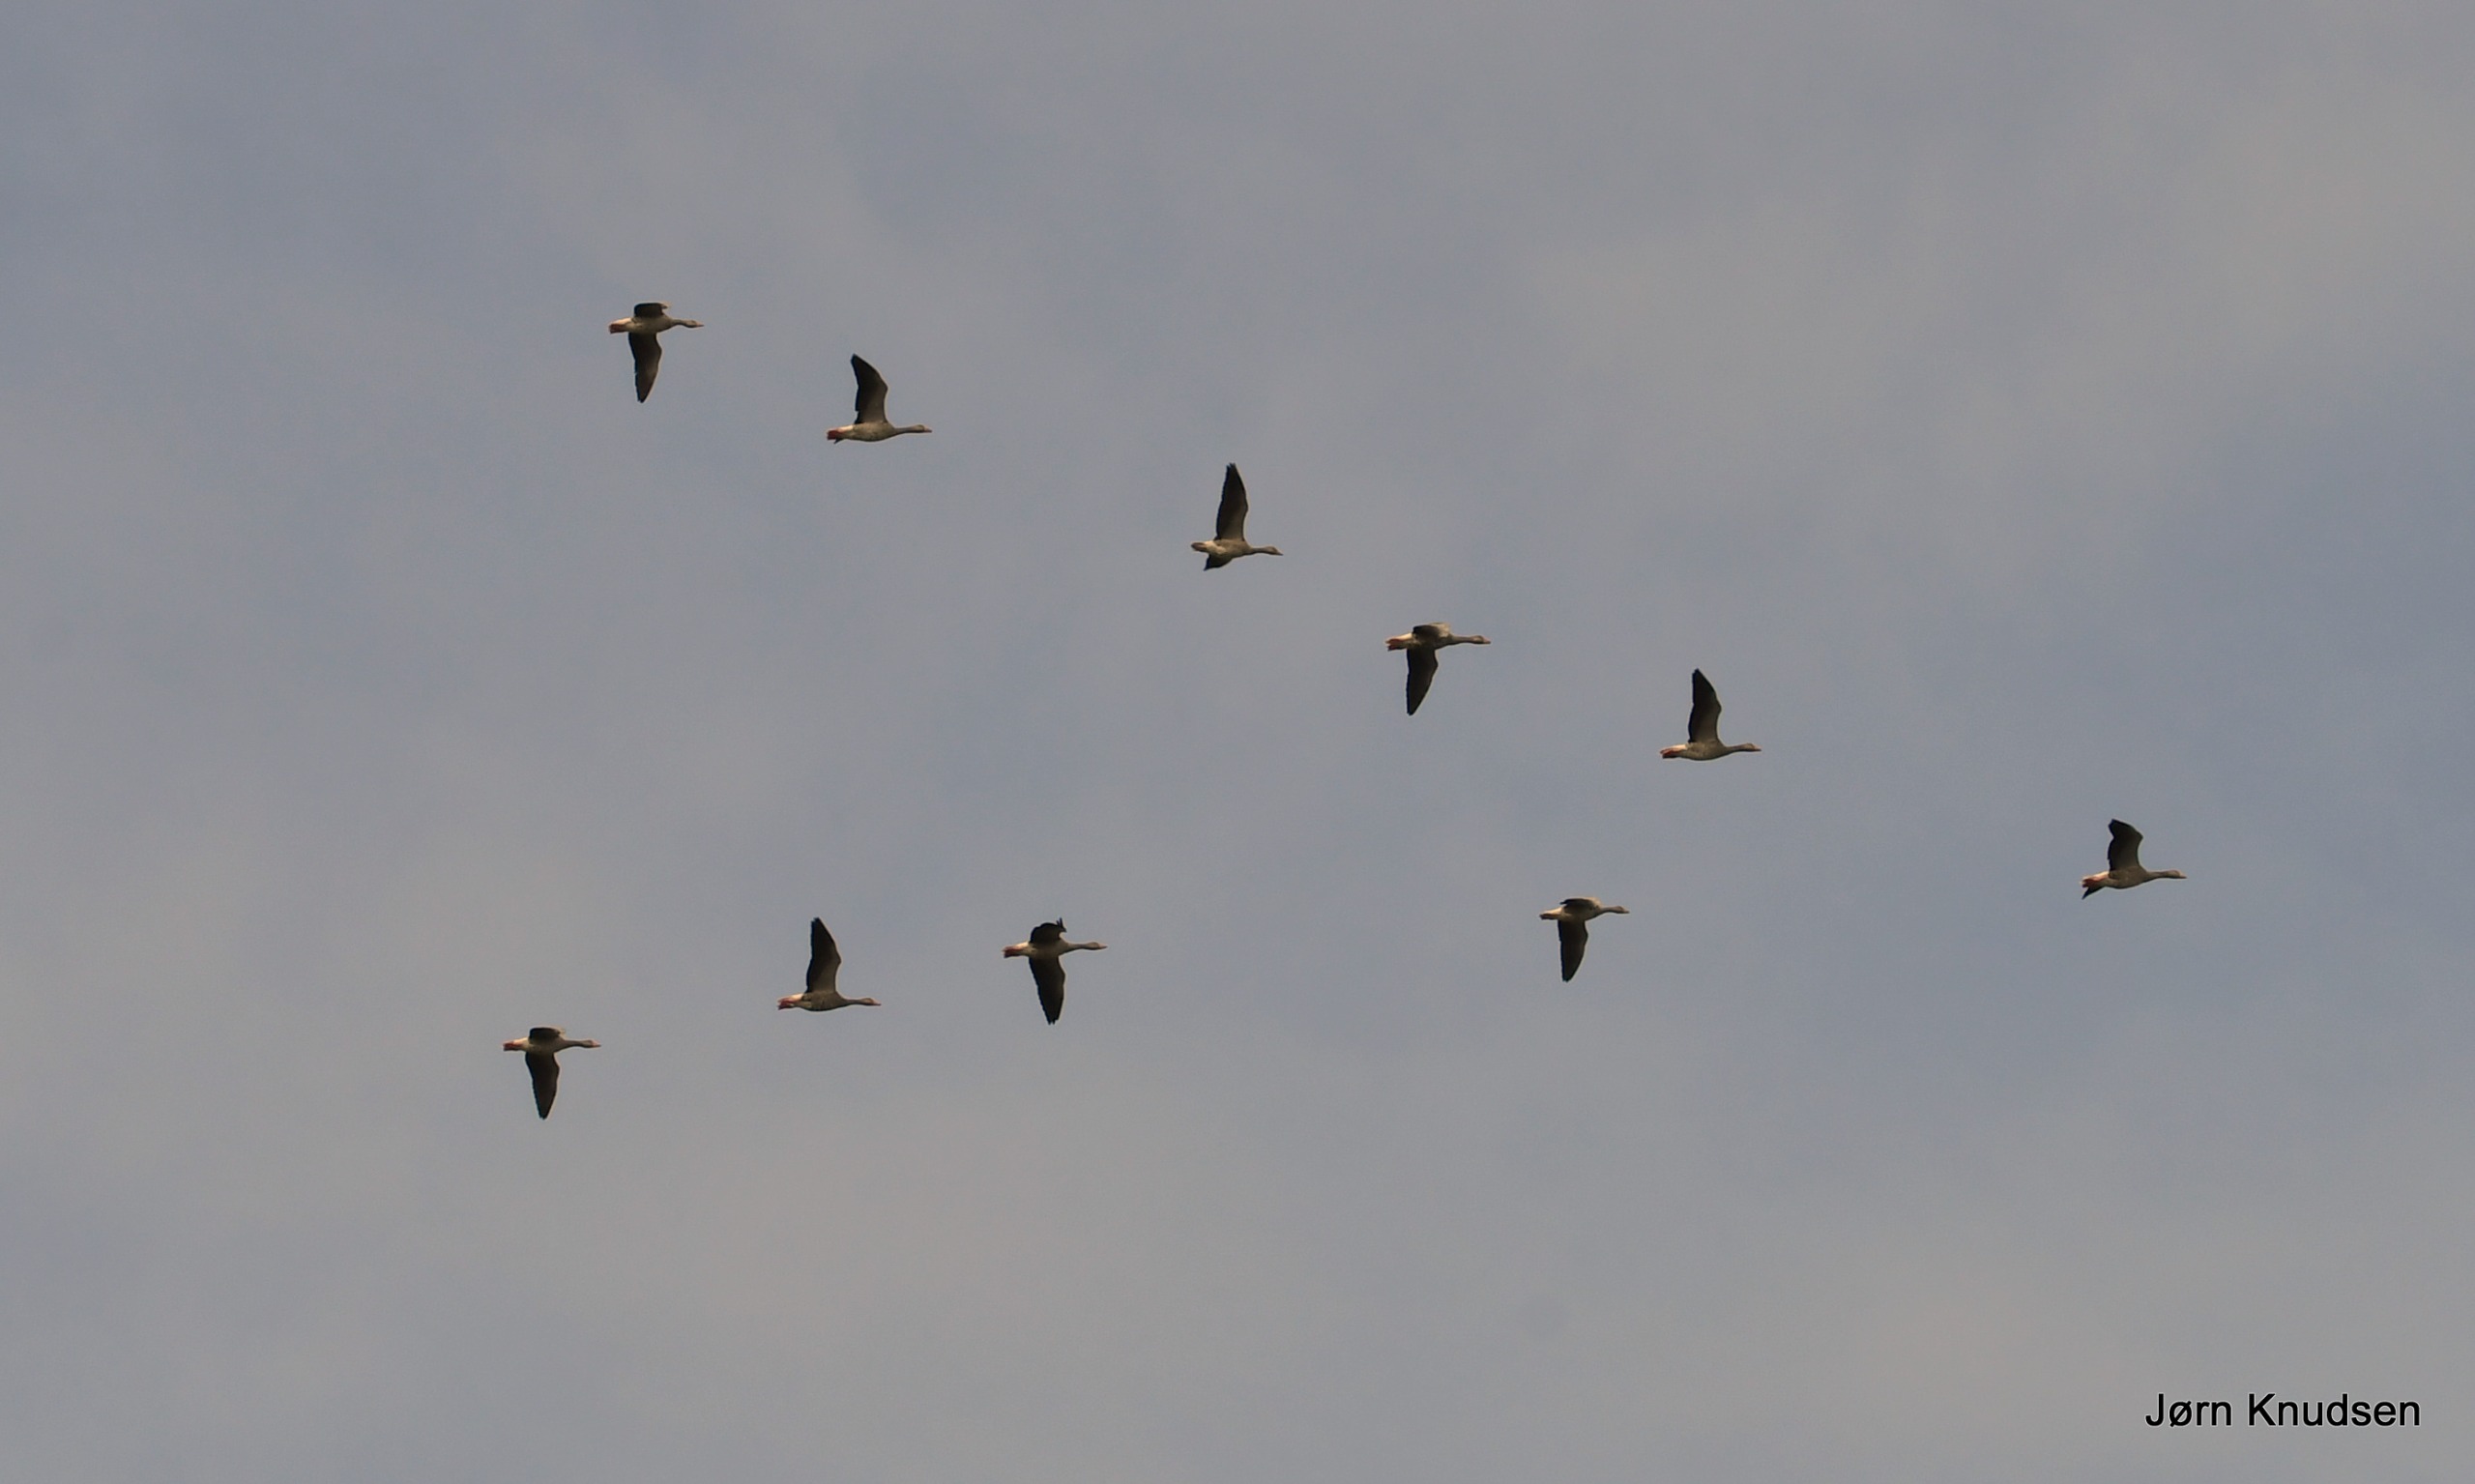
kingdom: Animalia
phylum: Chordata
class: Aves
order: Anseriformes
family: Anatidae
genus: Anser
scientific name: Anser anser
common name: Grågås
